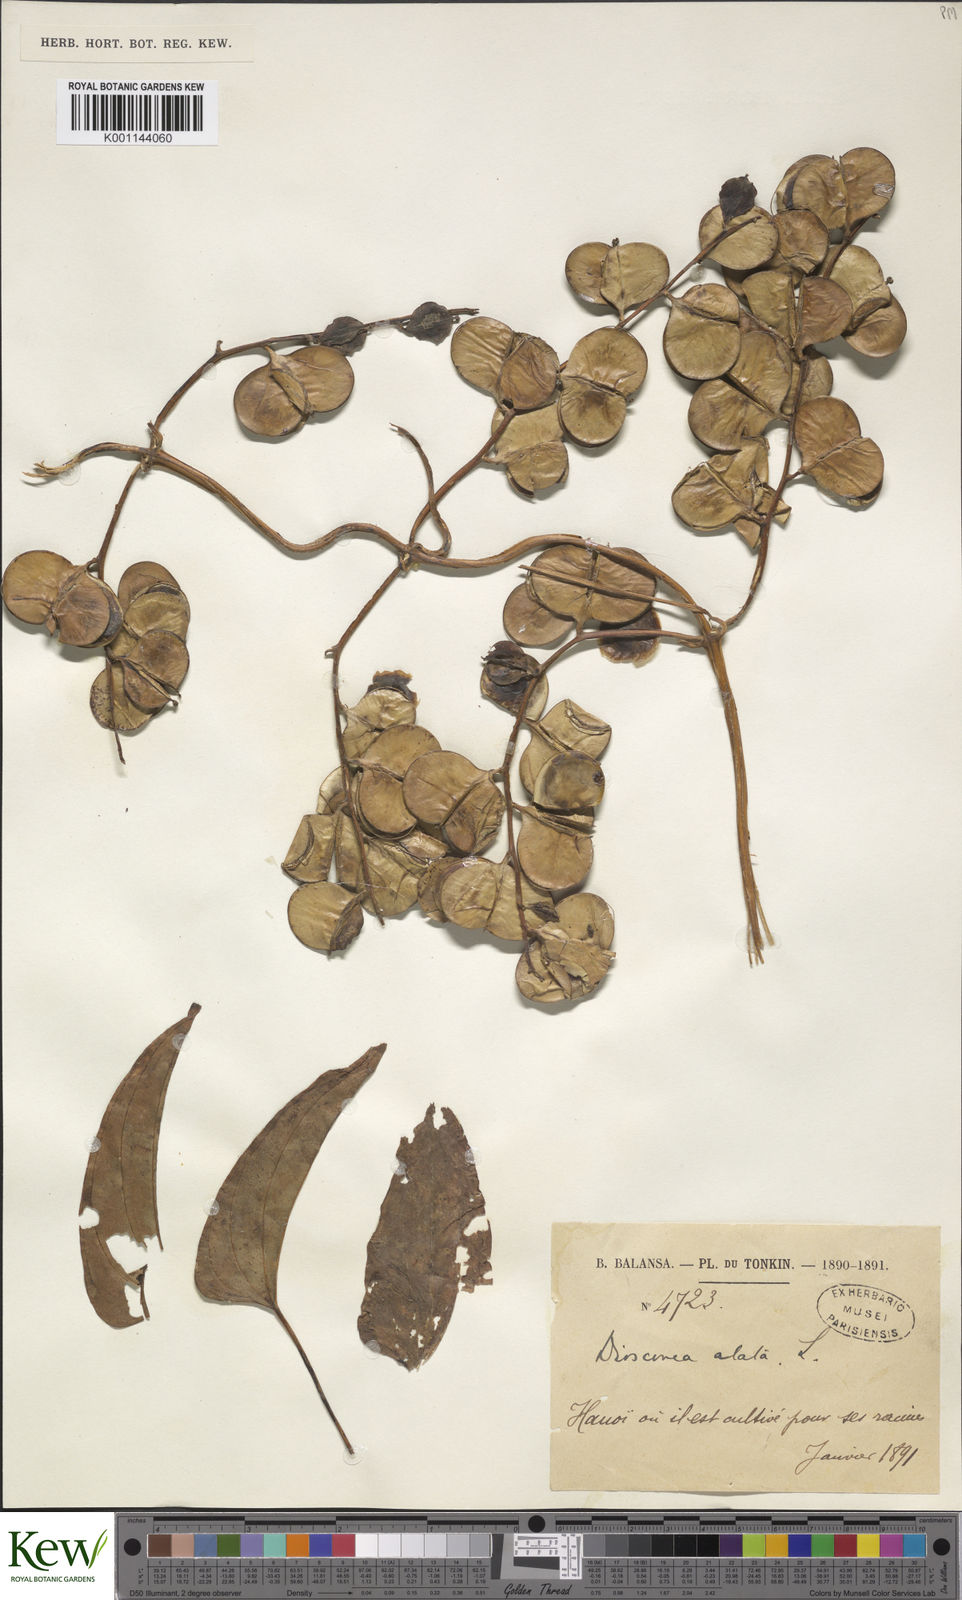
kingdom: Plantae
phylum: Tracheophyta
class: Liliopsida
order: Dioscoreales
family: Dioscoreaceae
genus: Dioscorea
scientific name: Dioscorea alata
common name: Water yam
